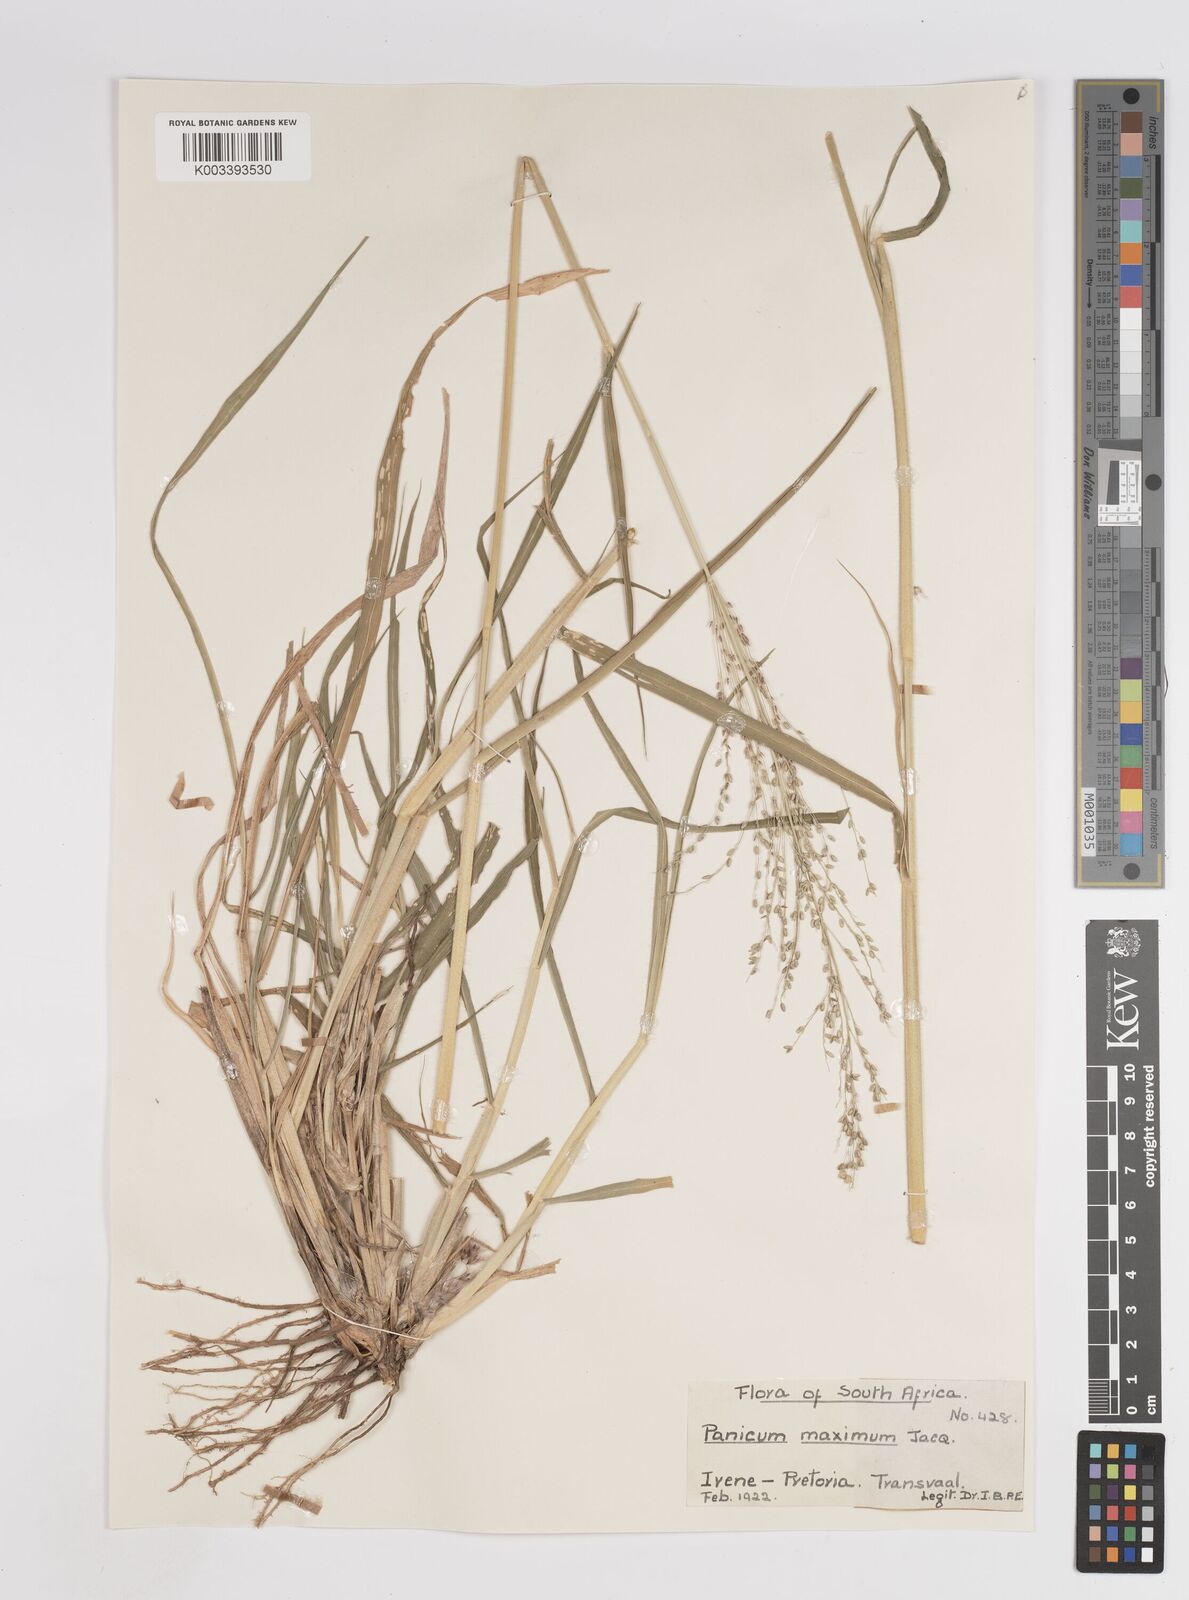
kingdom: Plantae
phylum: Tracheophyta
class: Liliopsida
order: Poales
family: Poaceae
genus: Megathyrsus
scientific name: Megathyrsus maximus
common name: Guineagrass
